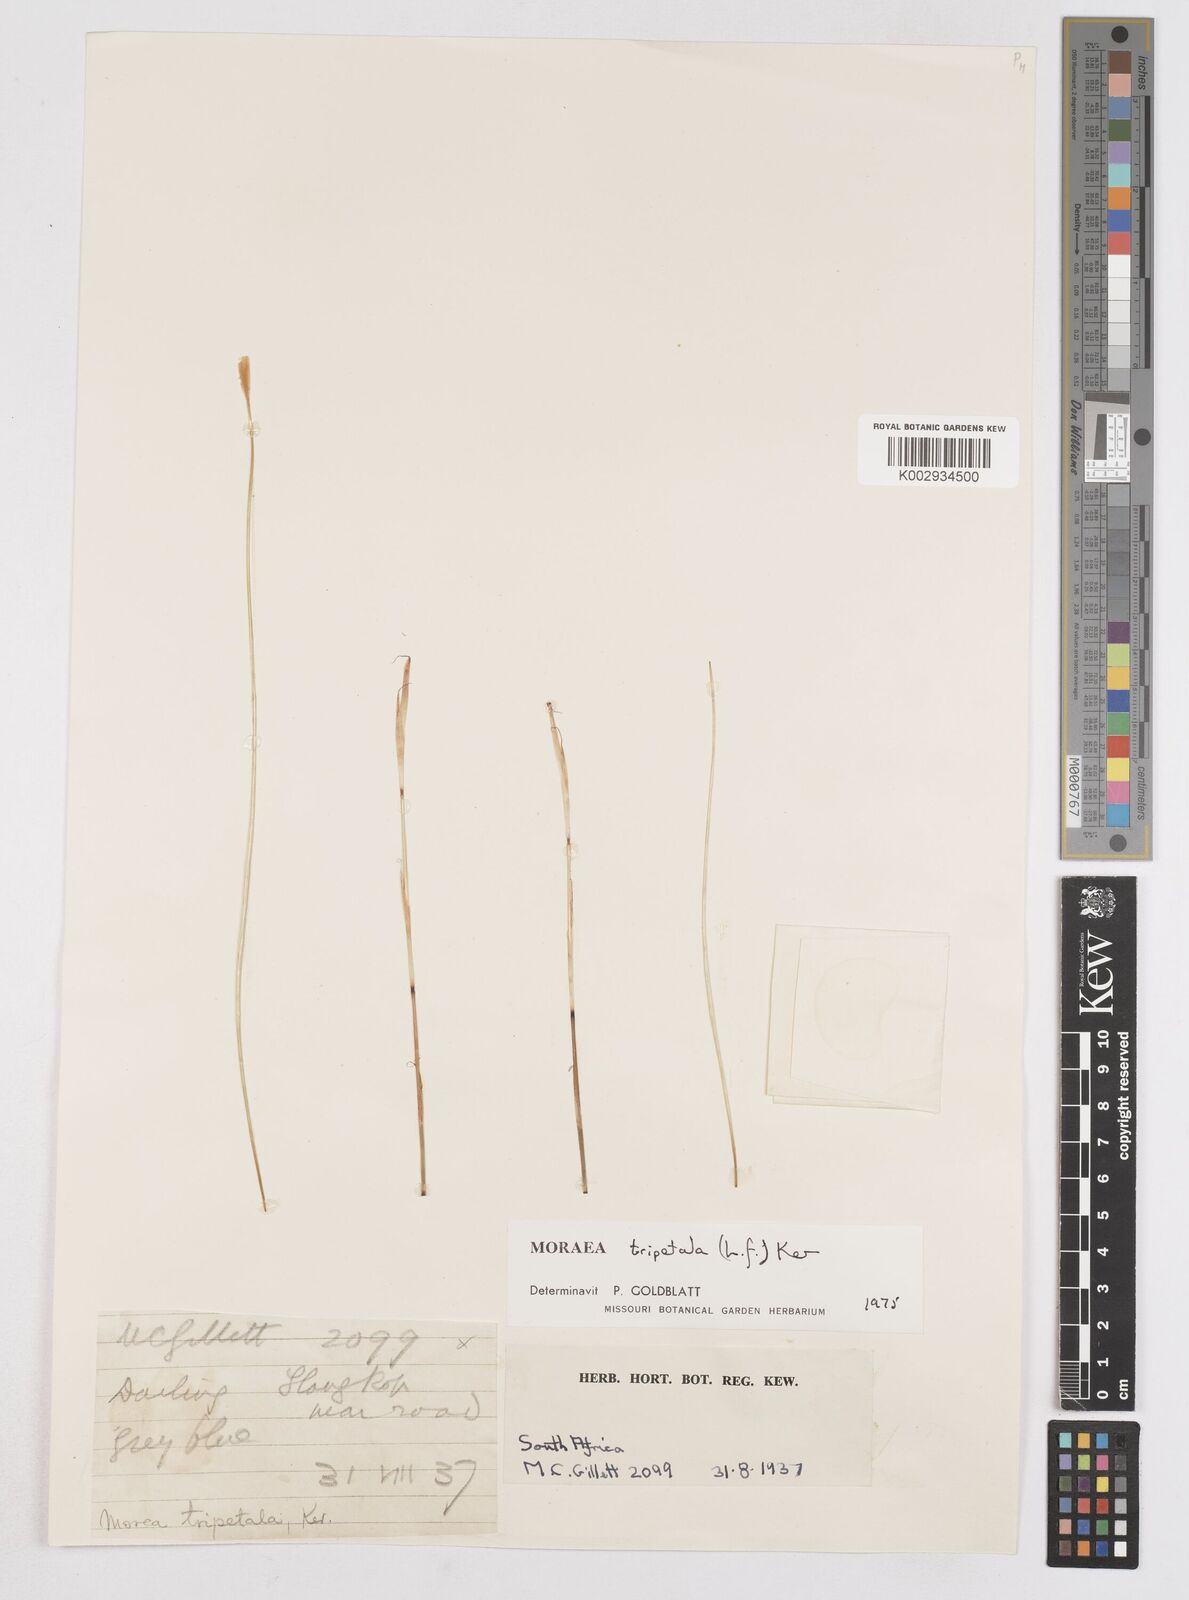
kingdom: Plantae
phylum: Tracheophyta
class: Liliopsida
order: Asparagales
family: Iridaceae
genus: Moraea
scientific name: Moraea tripetala
